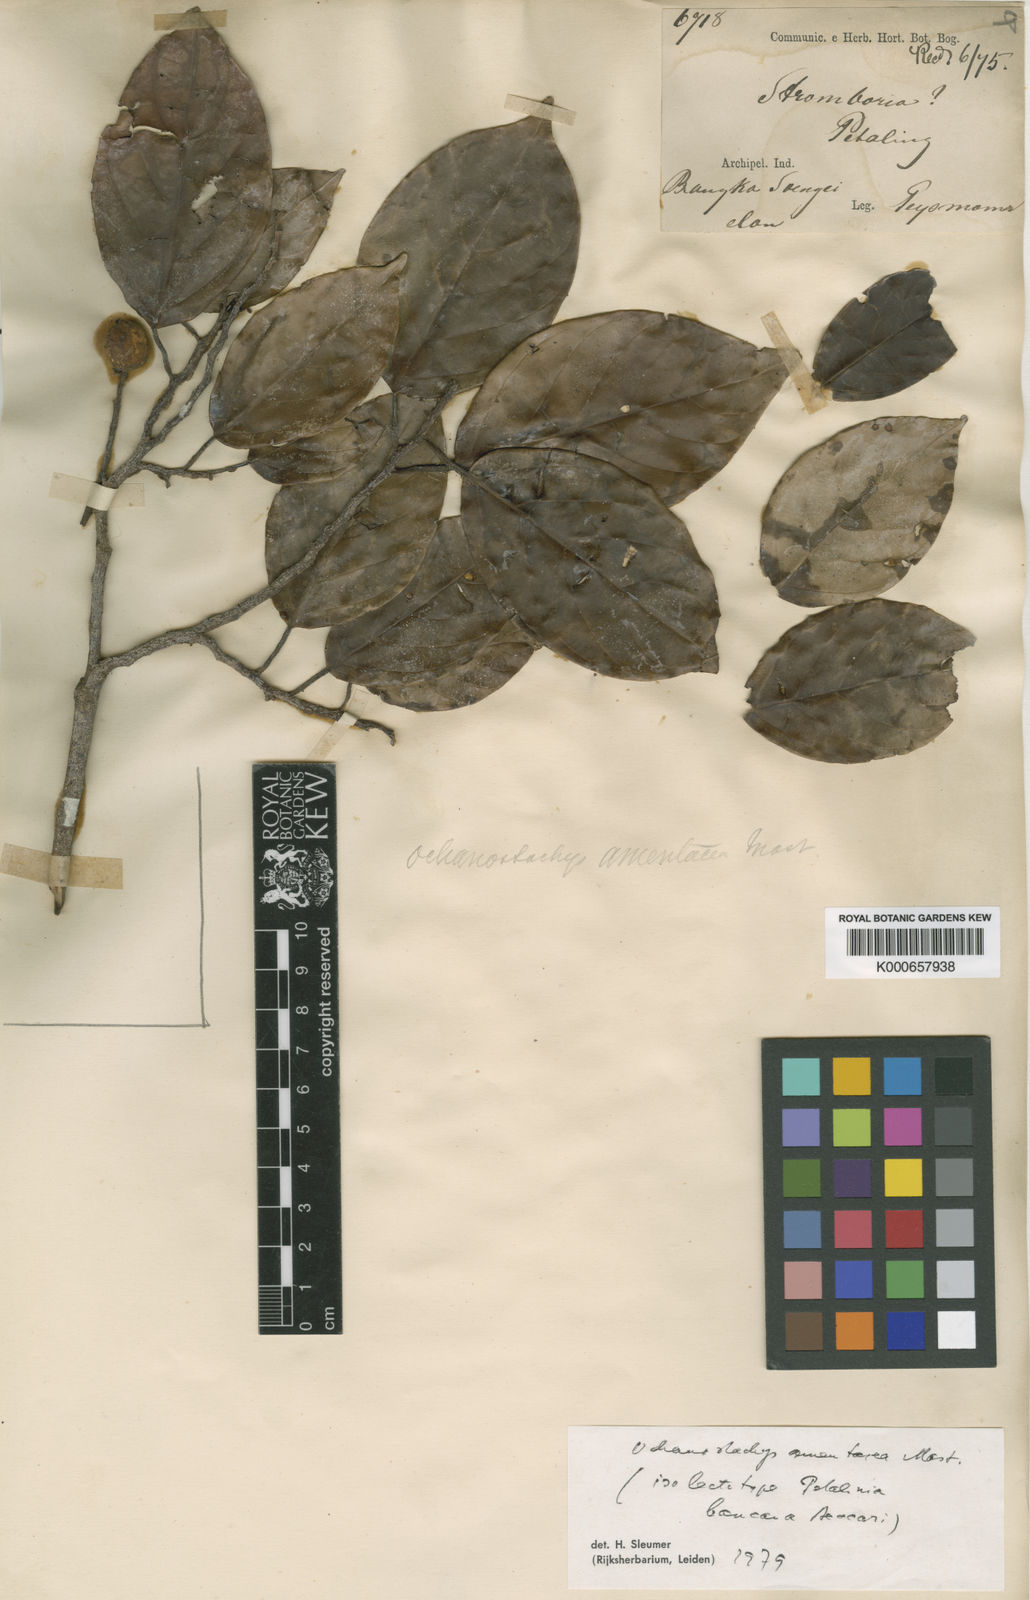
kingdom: Plantae
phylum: Tracheophyta
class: Magnoliopsida
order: Santalales
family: Coulaceae
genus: Ochanostachys
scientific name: Ochanostachys amentacea
